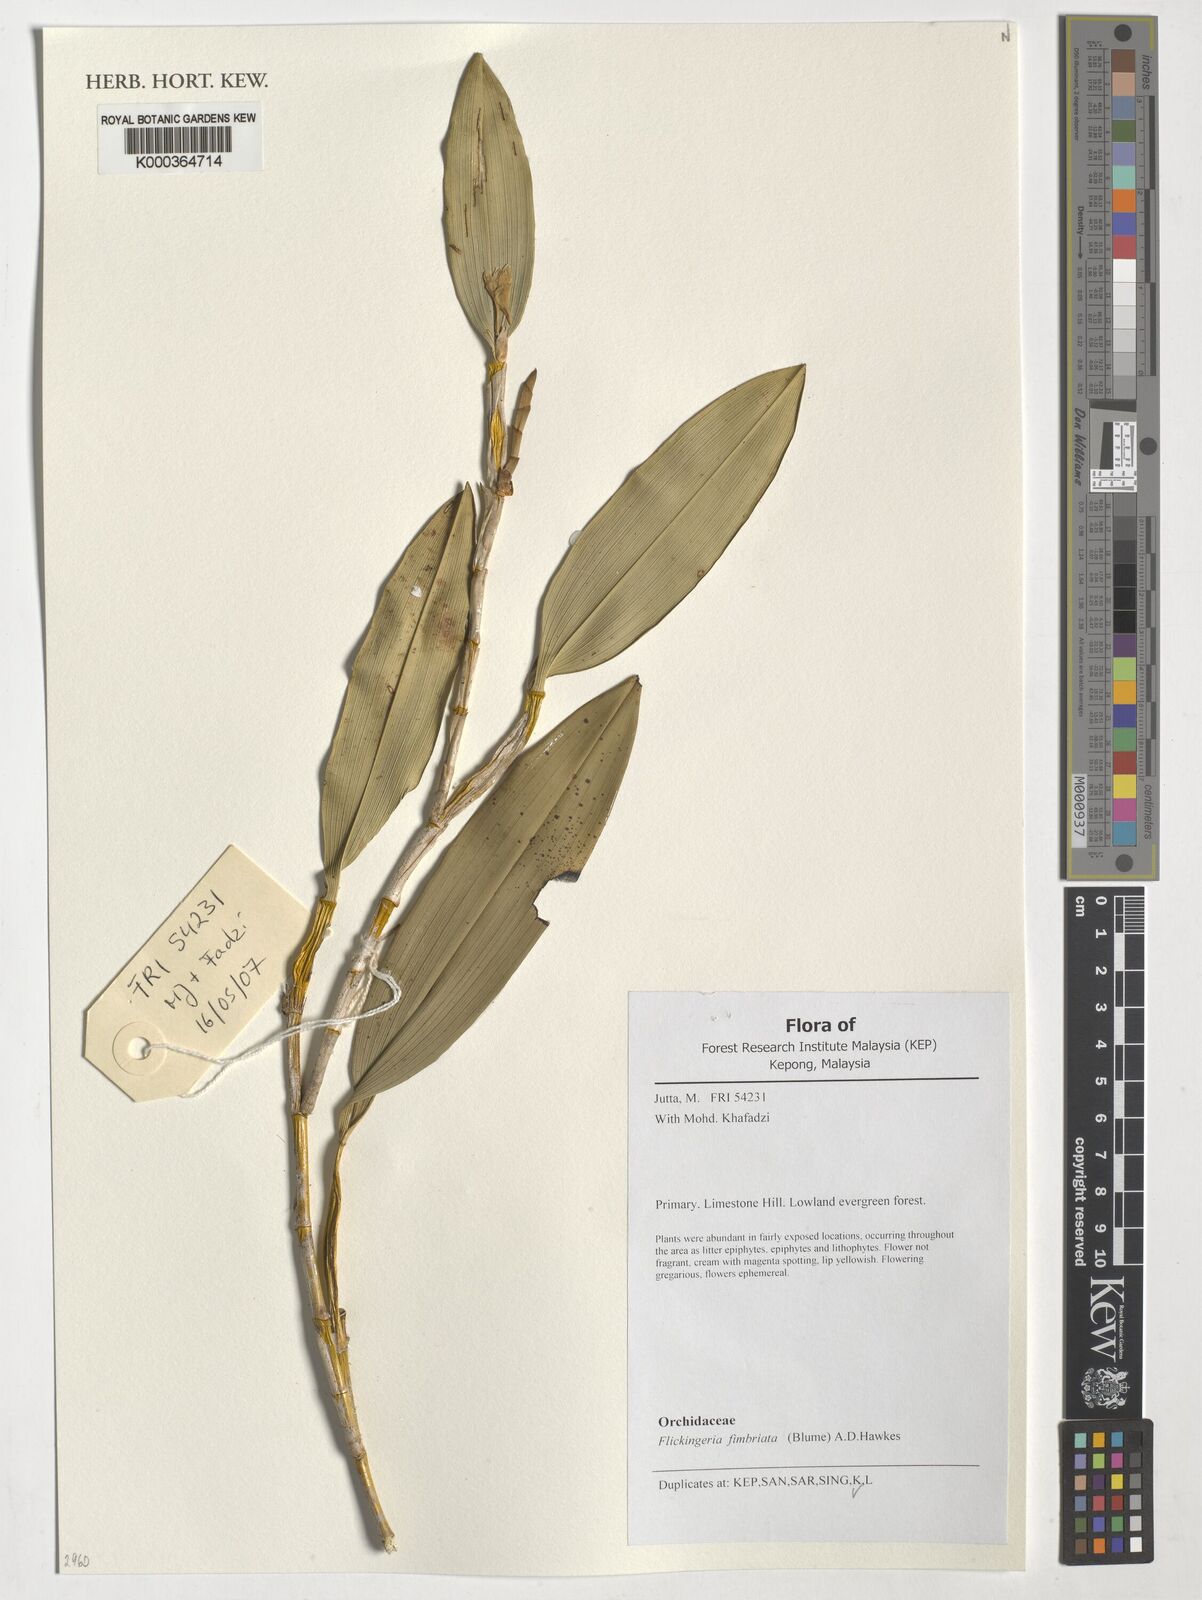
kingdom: Plantae
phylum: Tracheophyta
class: Liliopsida
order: Asparagales
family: Orchidaceae
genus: Dendrobium
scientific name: Dendrobium plicatile
